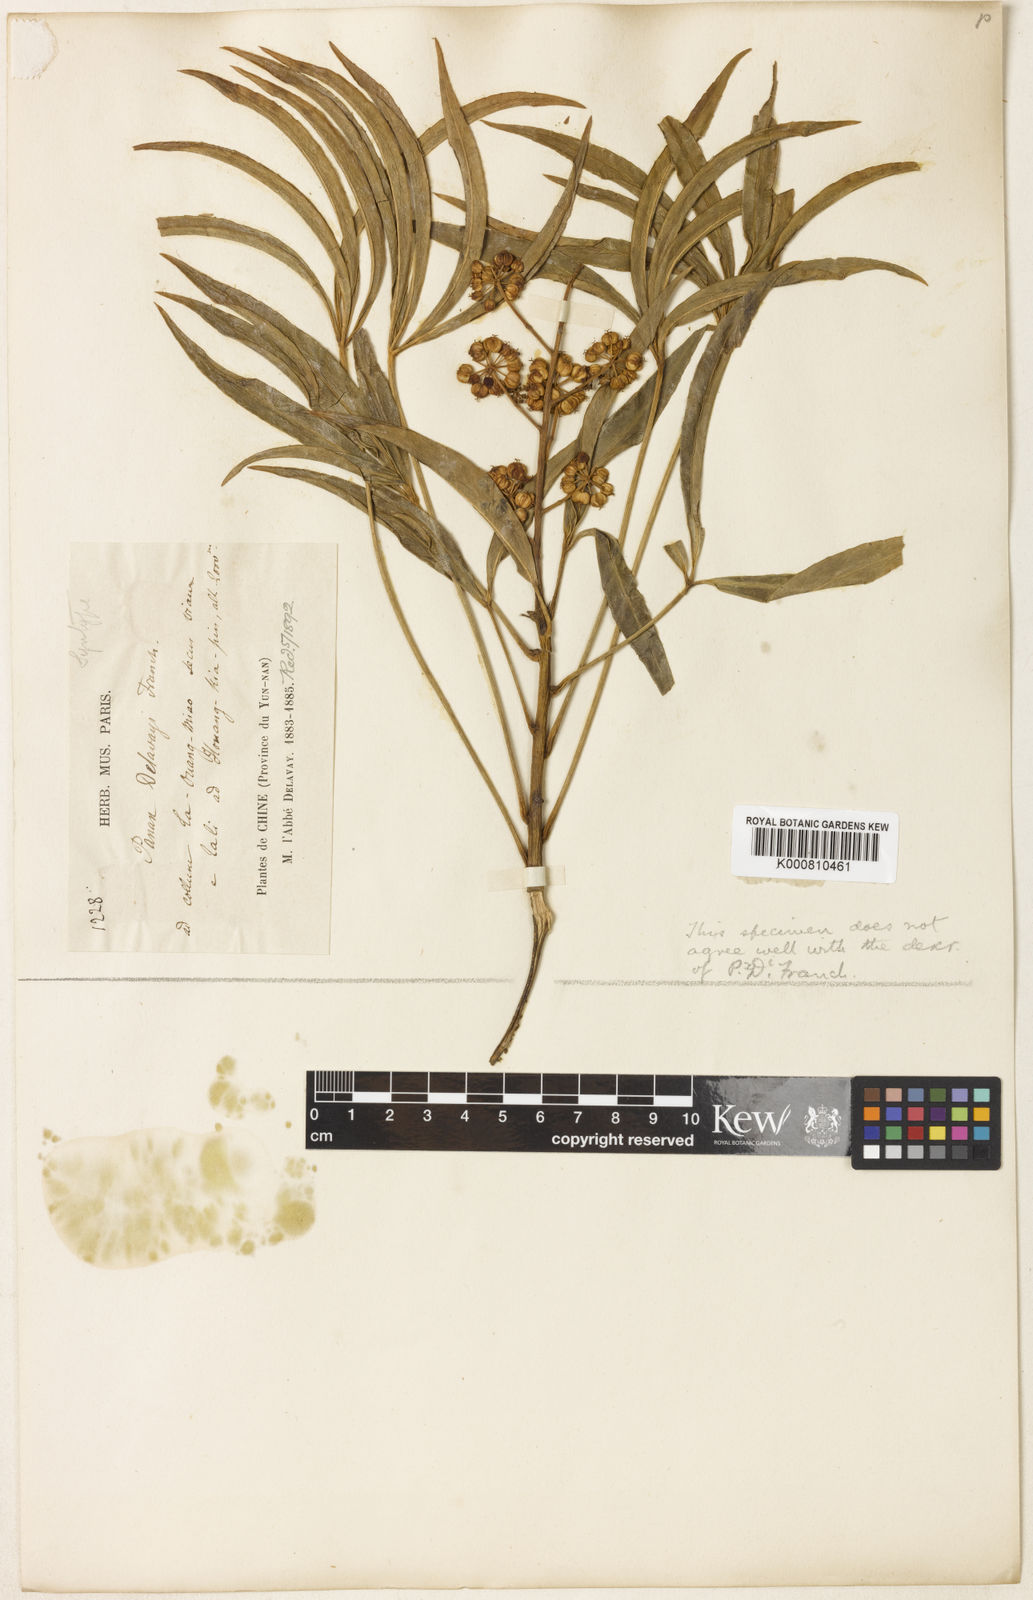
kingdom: Plantae
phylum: Tracheophyta
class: Magnoliopsida
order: Apiales
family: Araliaceae
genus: Metapanax
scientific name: Metapanax delavayi
